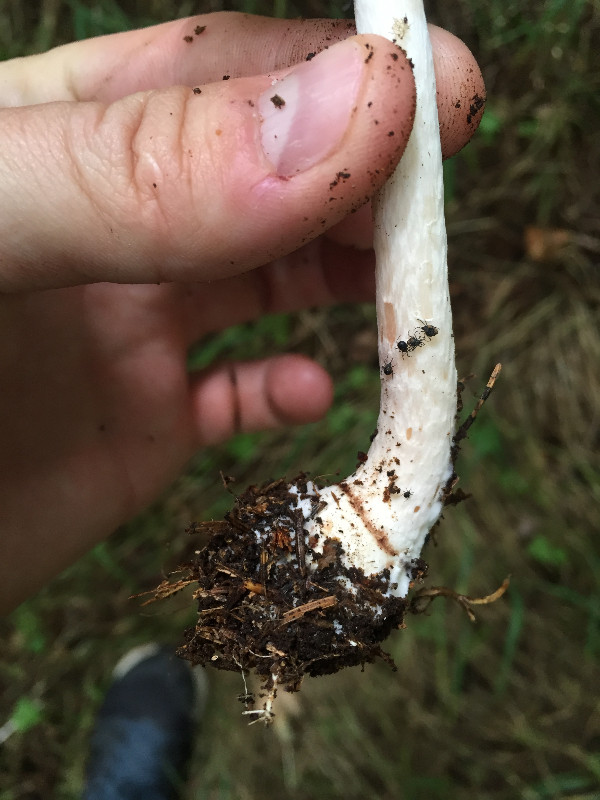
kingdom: Fungi
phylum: Basidiomycota
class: Agaricomycetes
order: Agaricales
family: Agaricaceae
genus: Agaricus
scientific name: Agaricus impudicus
